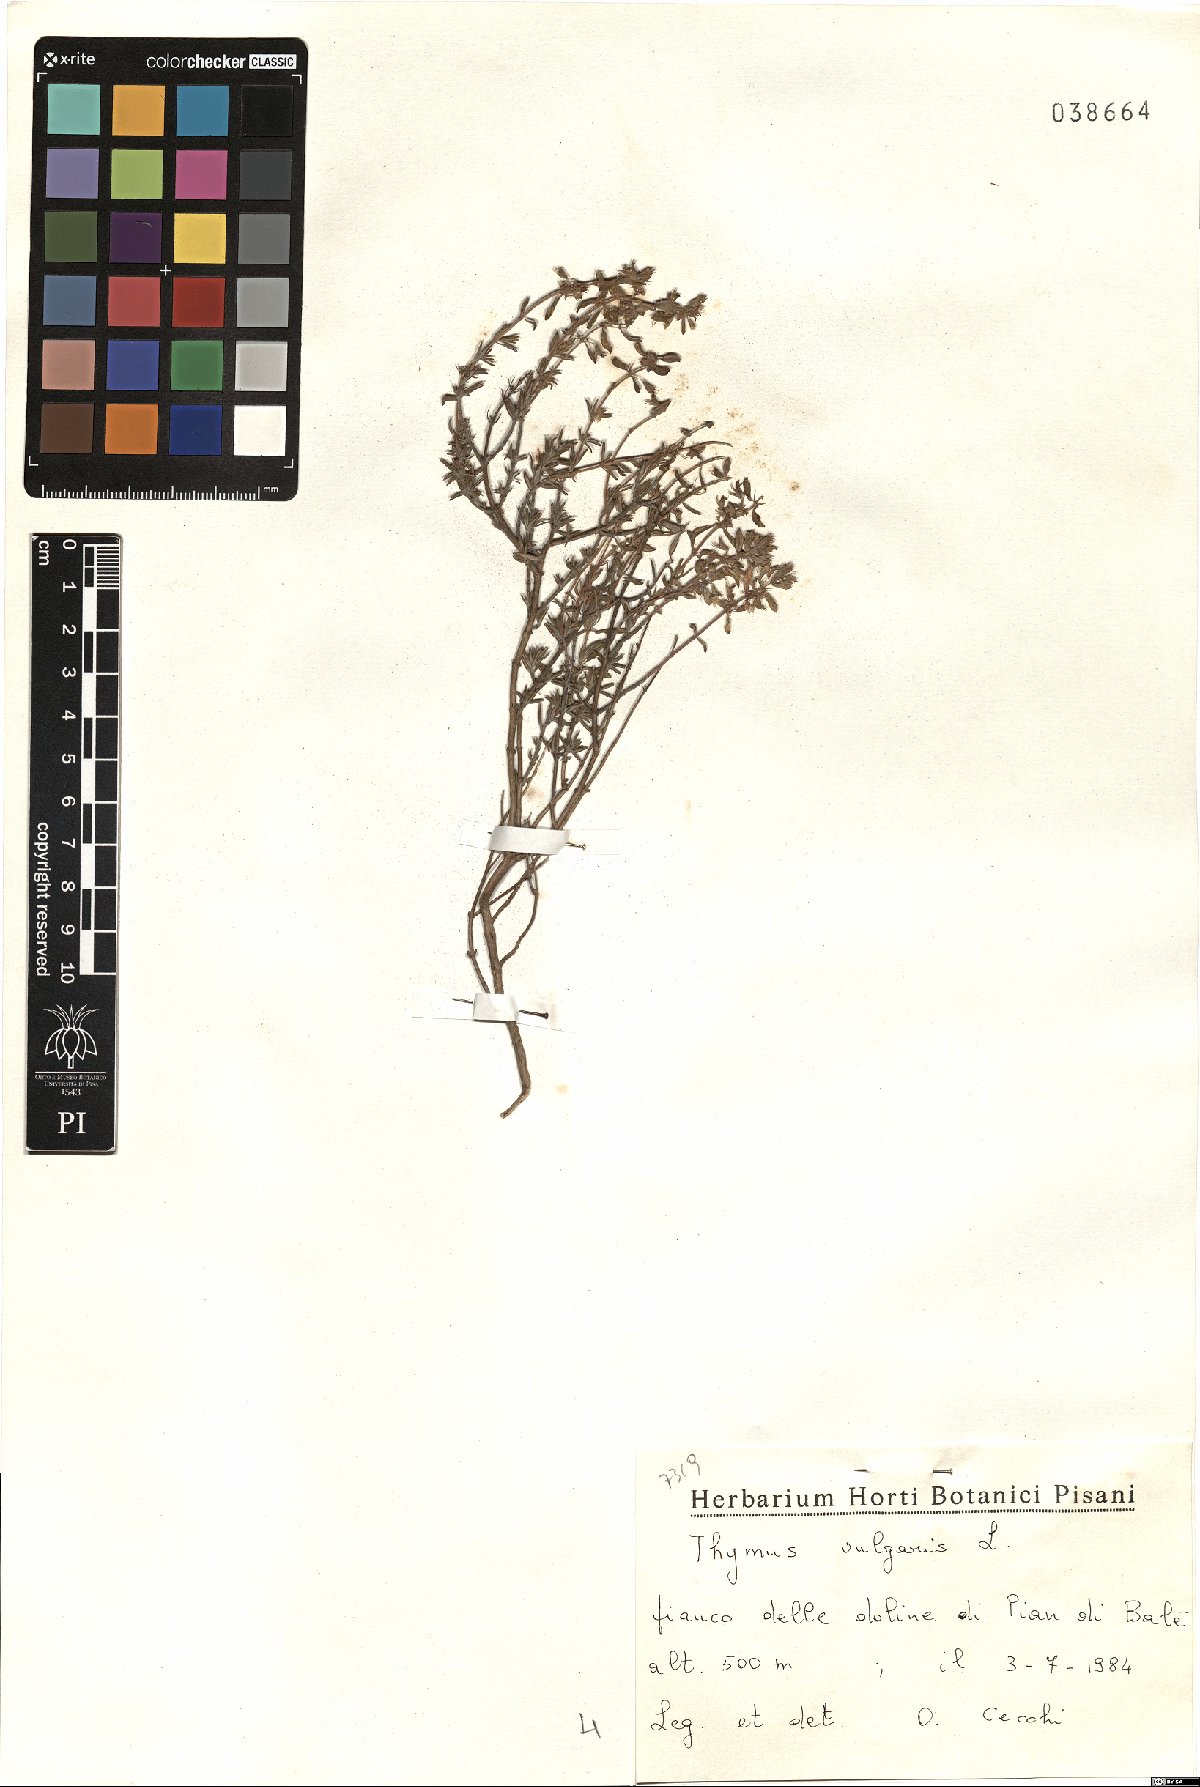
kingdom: Plantae
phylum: Tracheophyta
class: Magnoliopsida
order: Lamiales
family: Lamiaceae
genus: Thymus
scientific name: Thymus vulgaris
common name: Garden thyme
